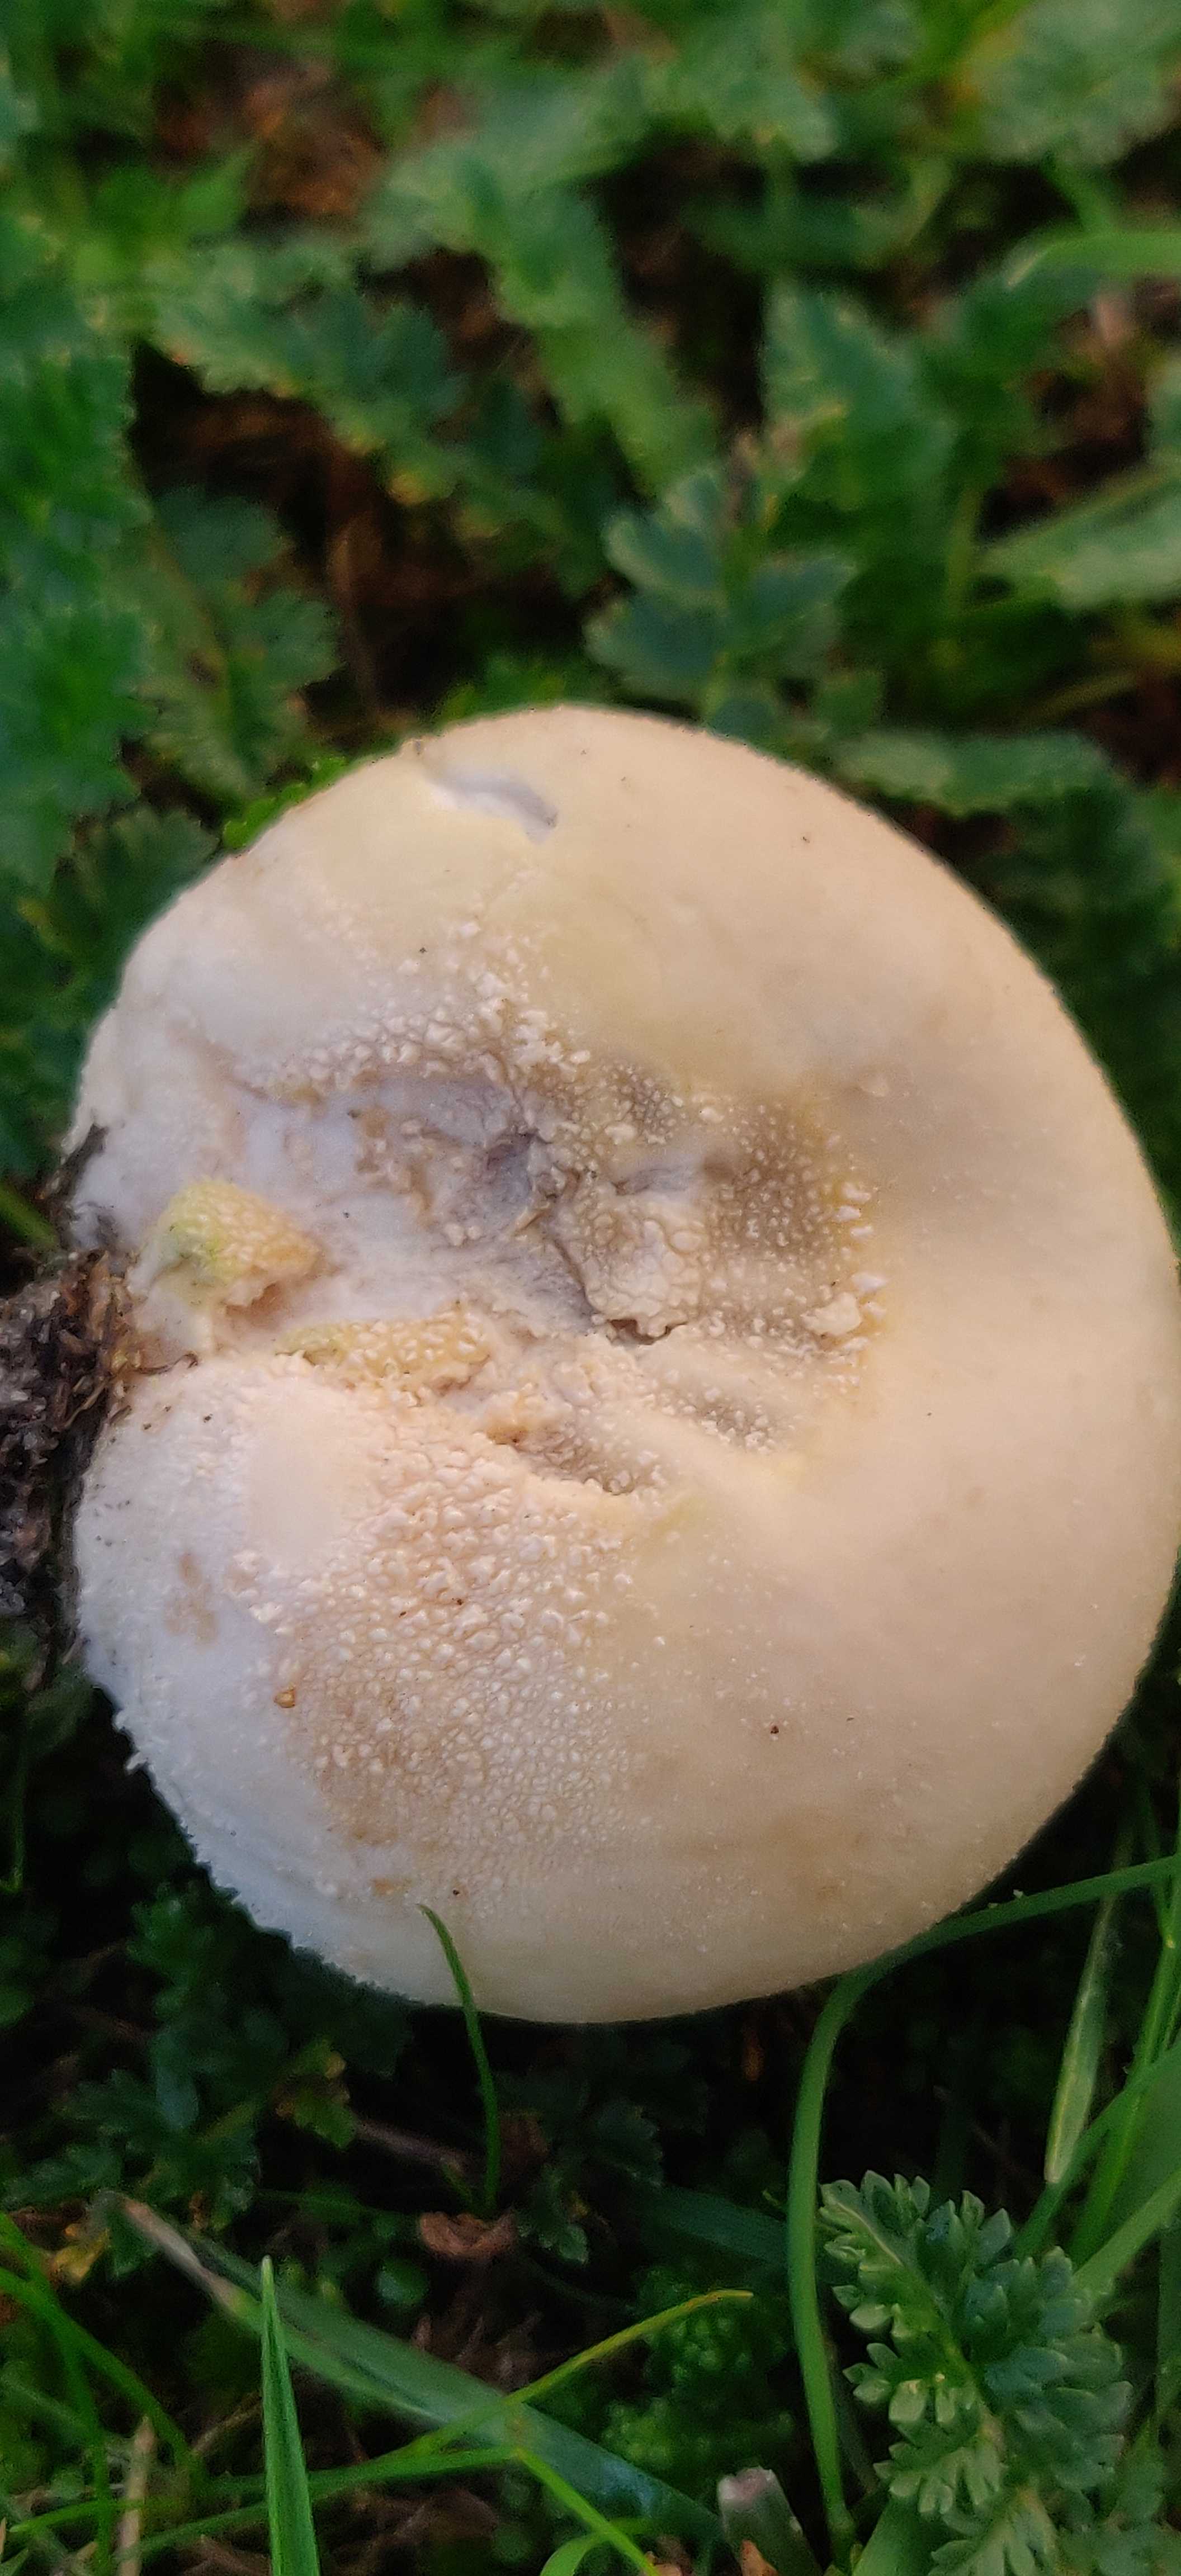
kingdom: Fungi
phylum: Basidiomycota
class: Agaricomycetes
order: Agaricales
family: Lycoperdaceae
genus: Lycoperdon
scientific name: Lycoperdon pratense
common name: flad støvbold
